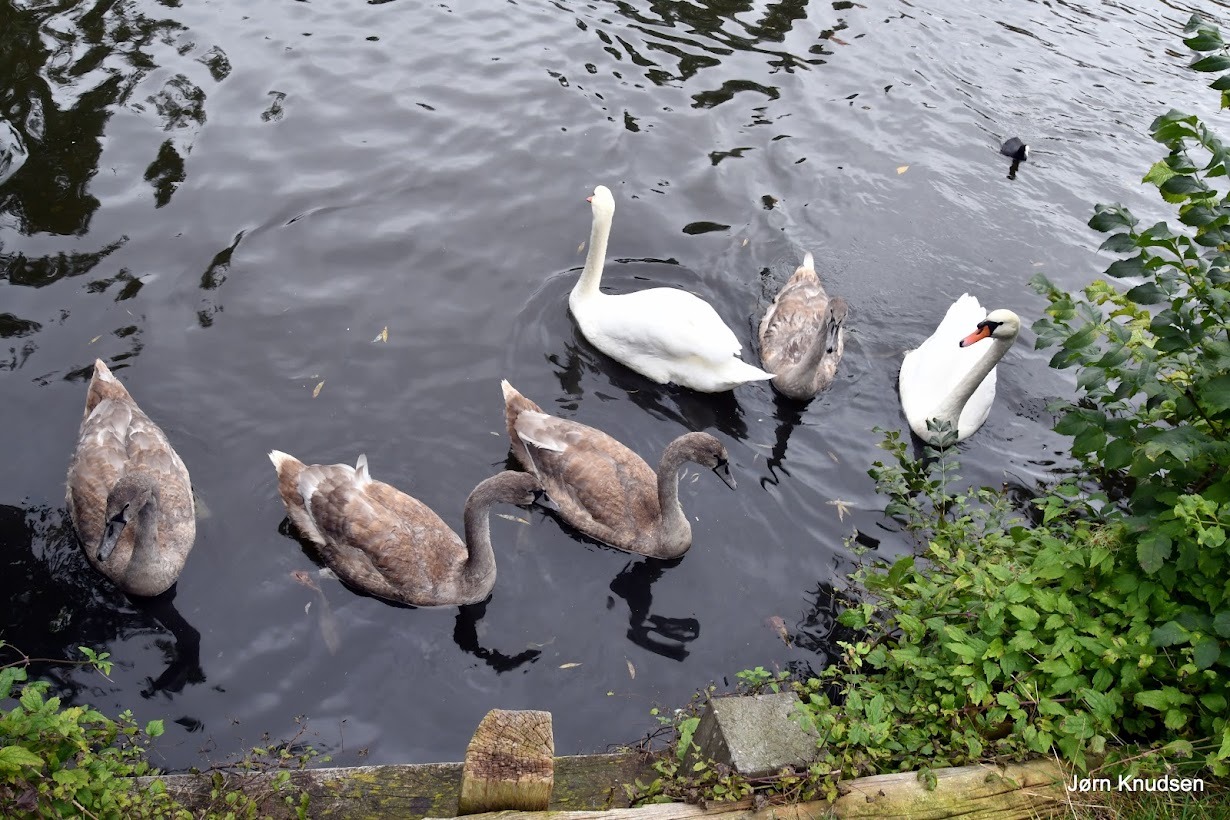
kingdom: Animalia
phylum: Chordata
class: Aves
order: Anseriformes
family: Anatidae
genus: Cygnus
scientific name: Cygnus olor
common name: Knopsvane
